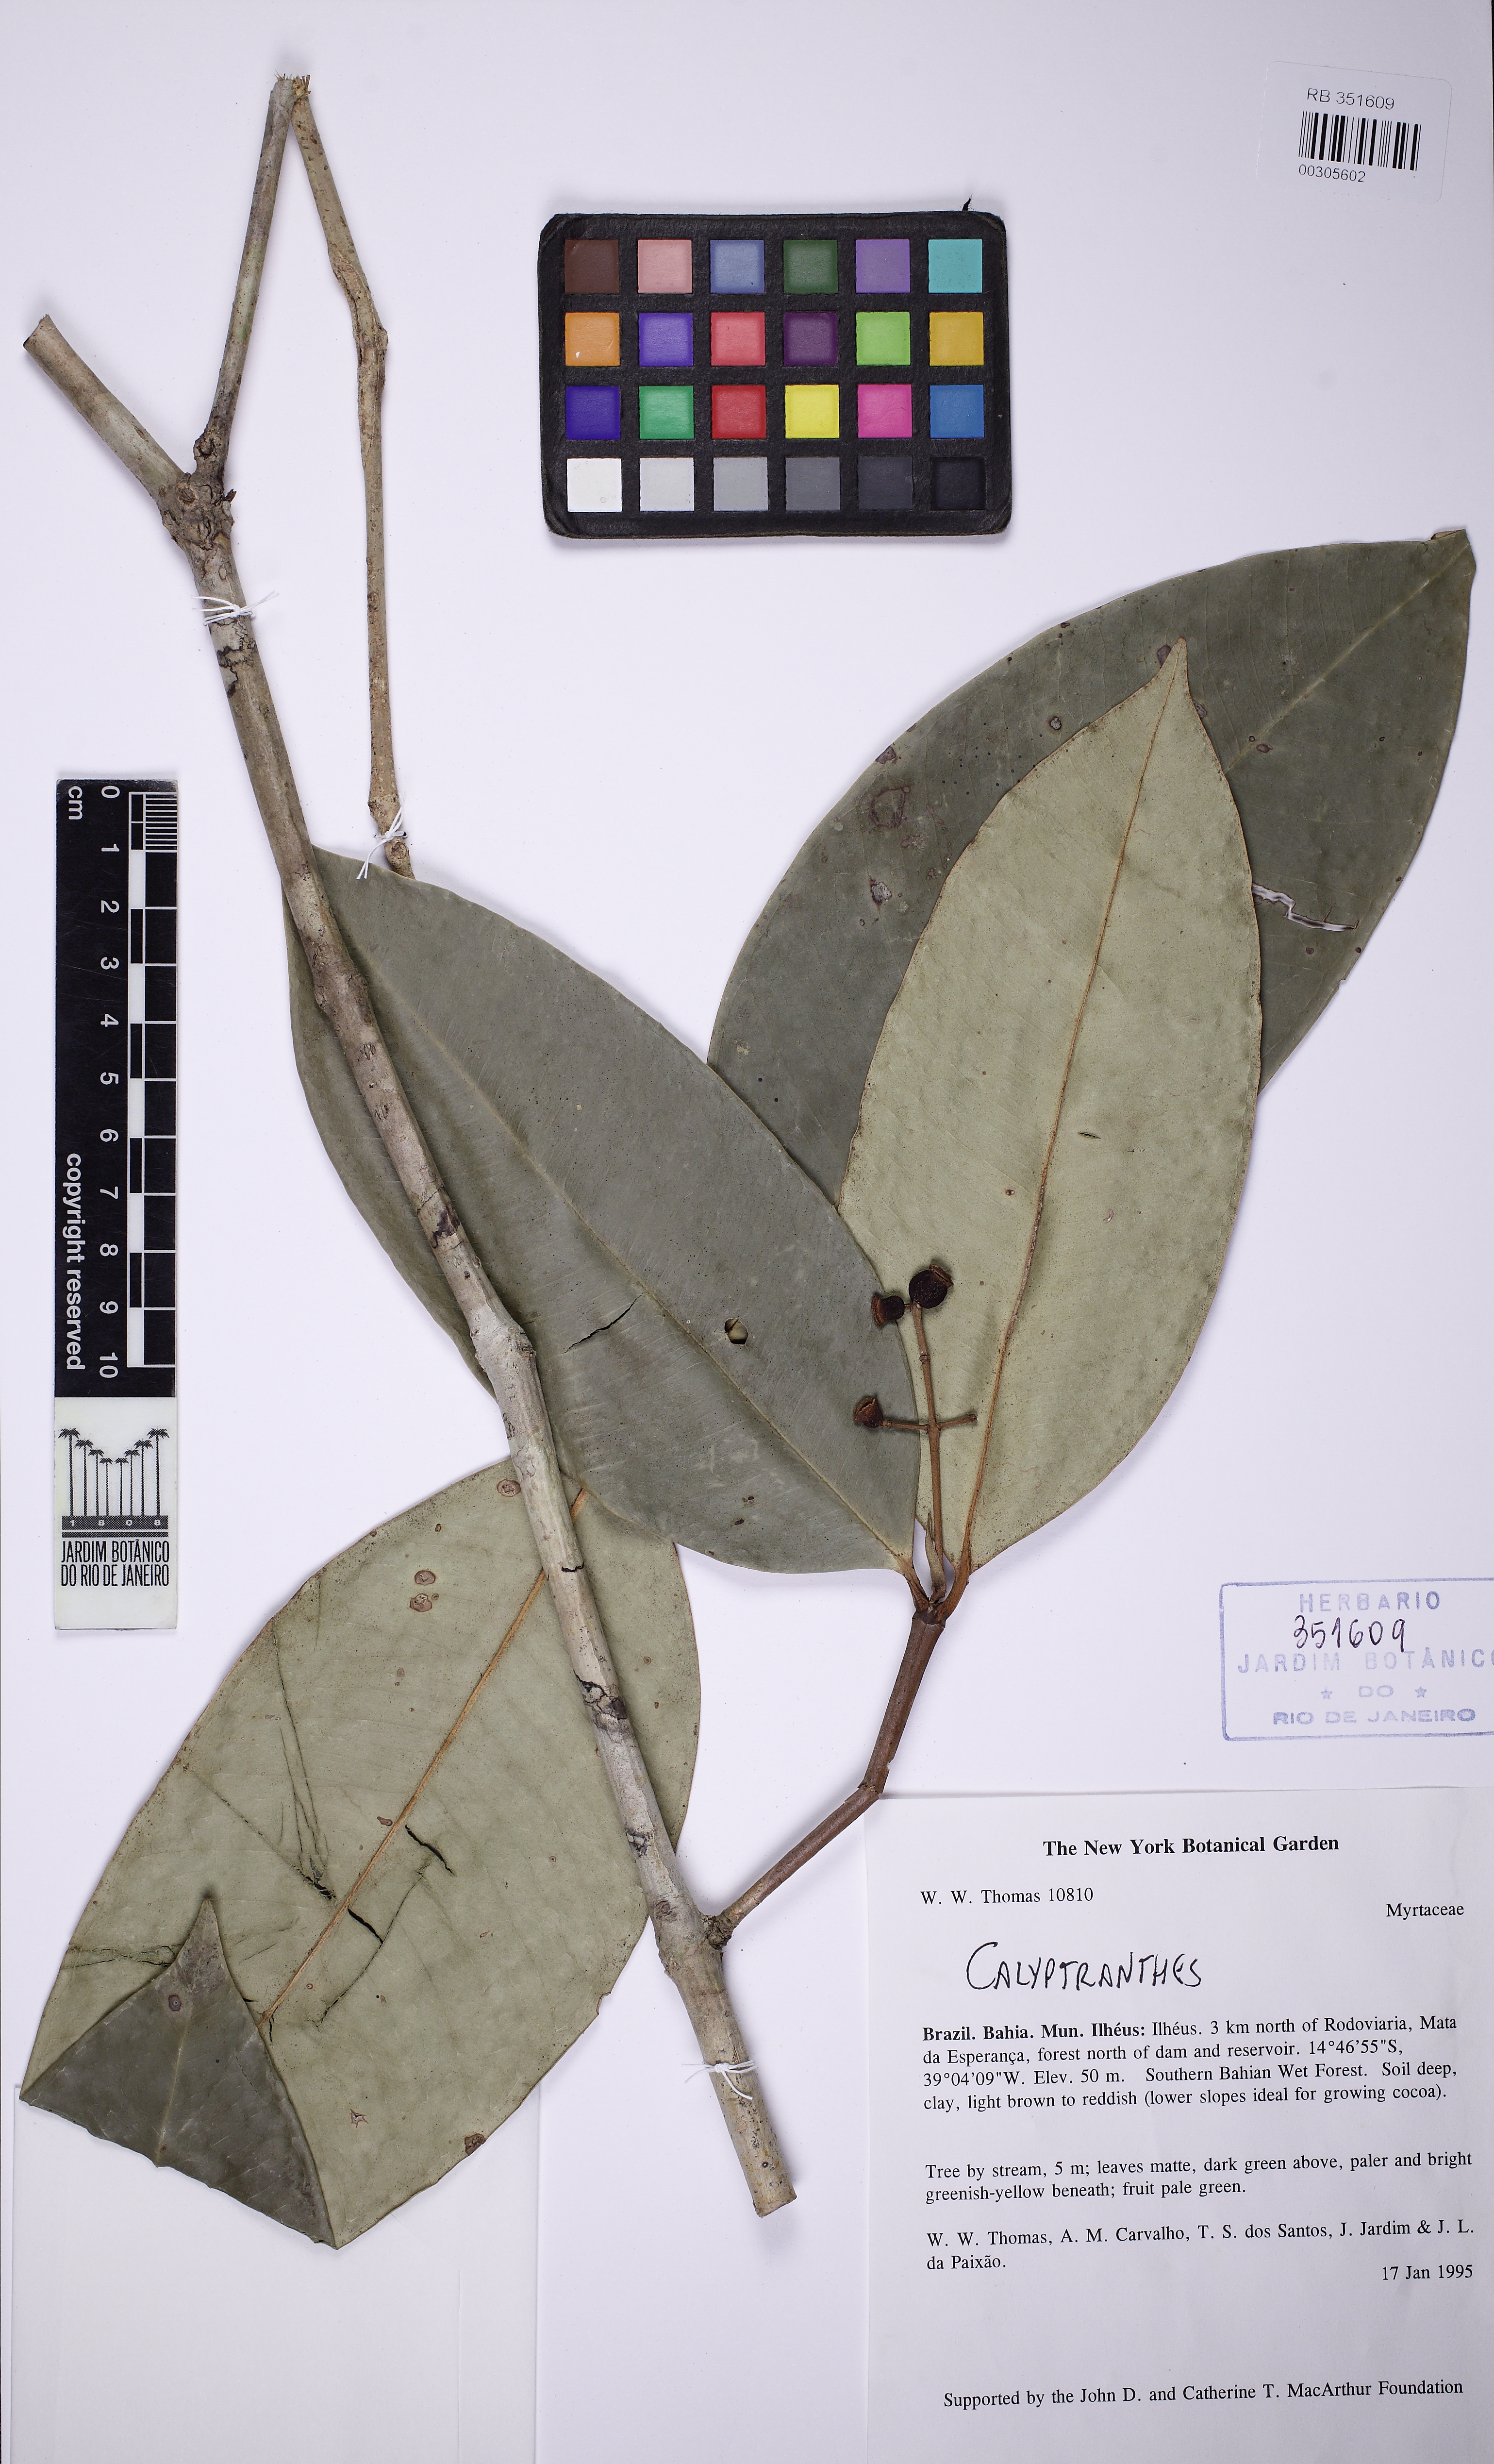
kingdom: Plantae
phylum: Tracheophyta
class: Magnoliopsida
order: Myrtales
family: Myrtaceae
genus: Myrcia
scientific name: Myrcia boanova
